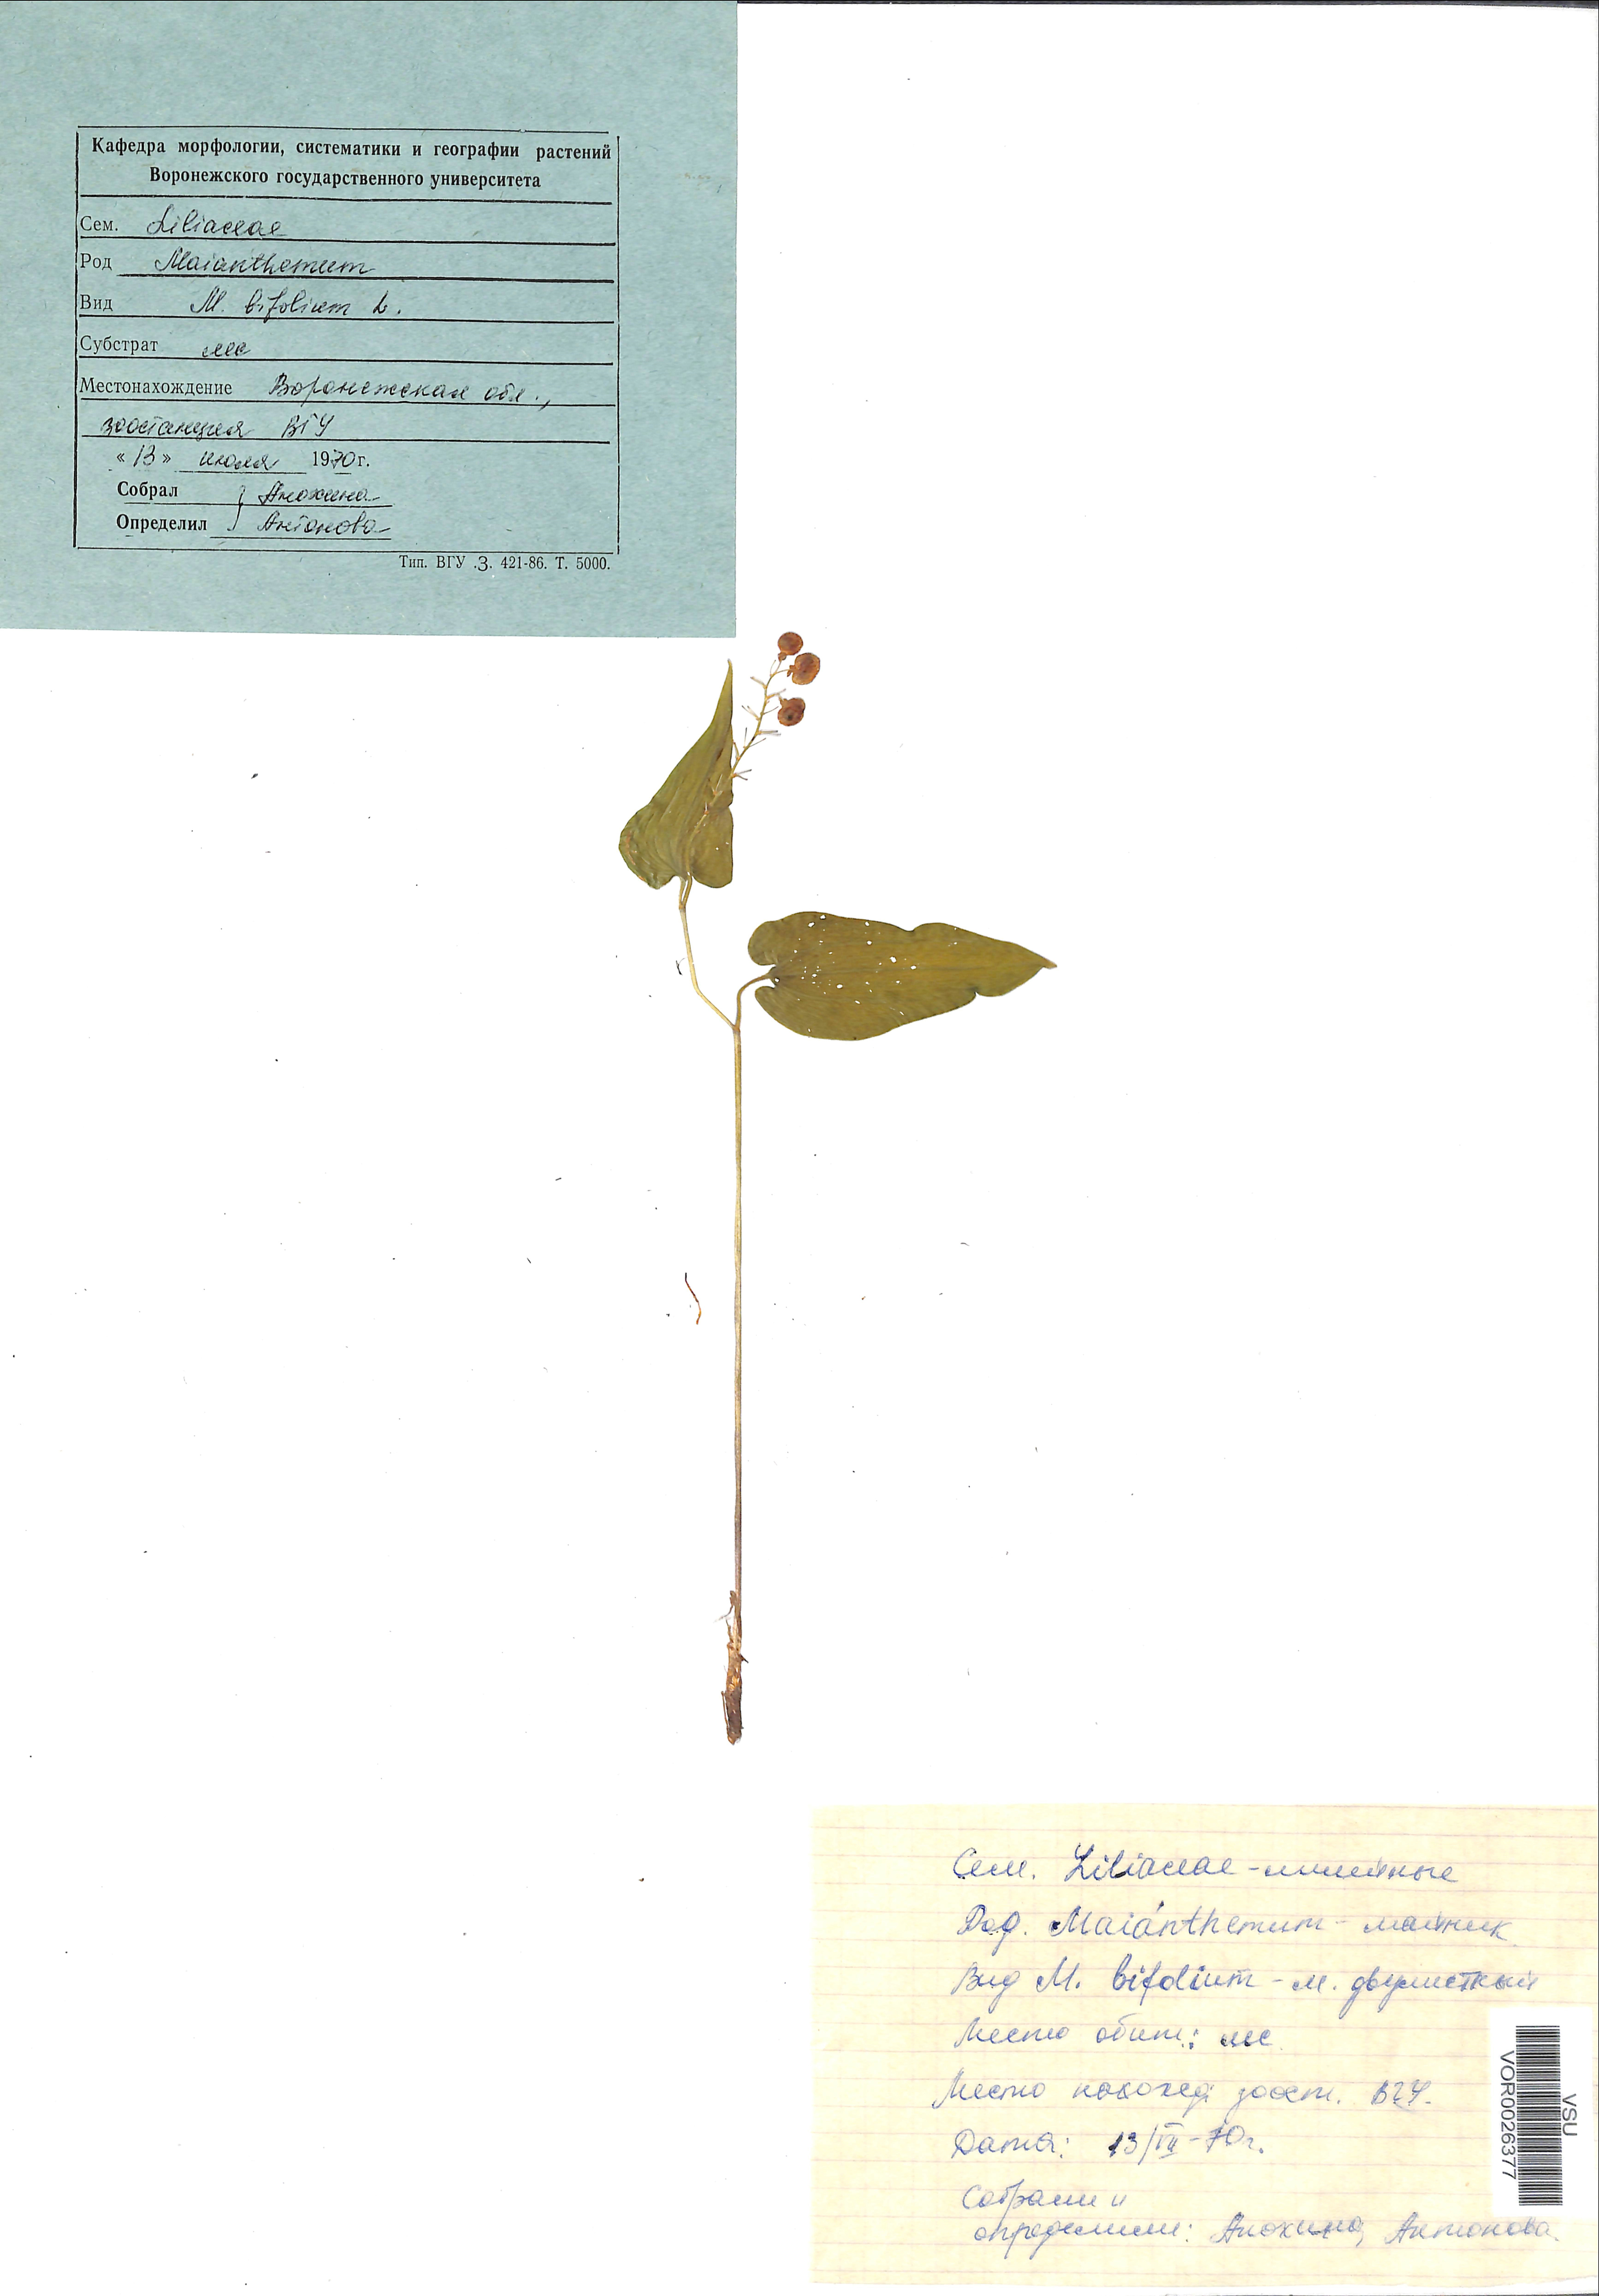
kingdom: Plantae
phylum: Tracheophyta
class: Liliopsida
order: Asparagales
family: Asparagaceae
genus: Maianthemum
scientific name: Maianthemum bifolium
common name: May lily
